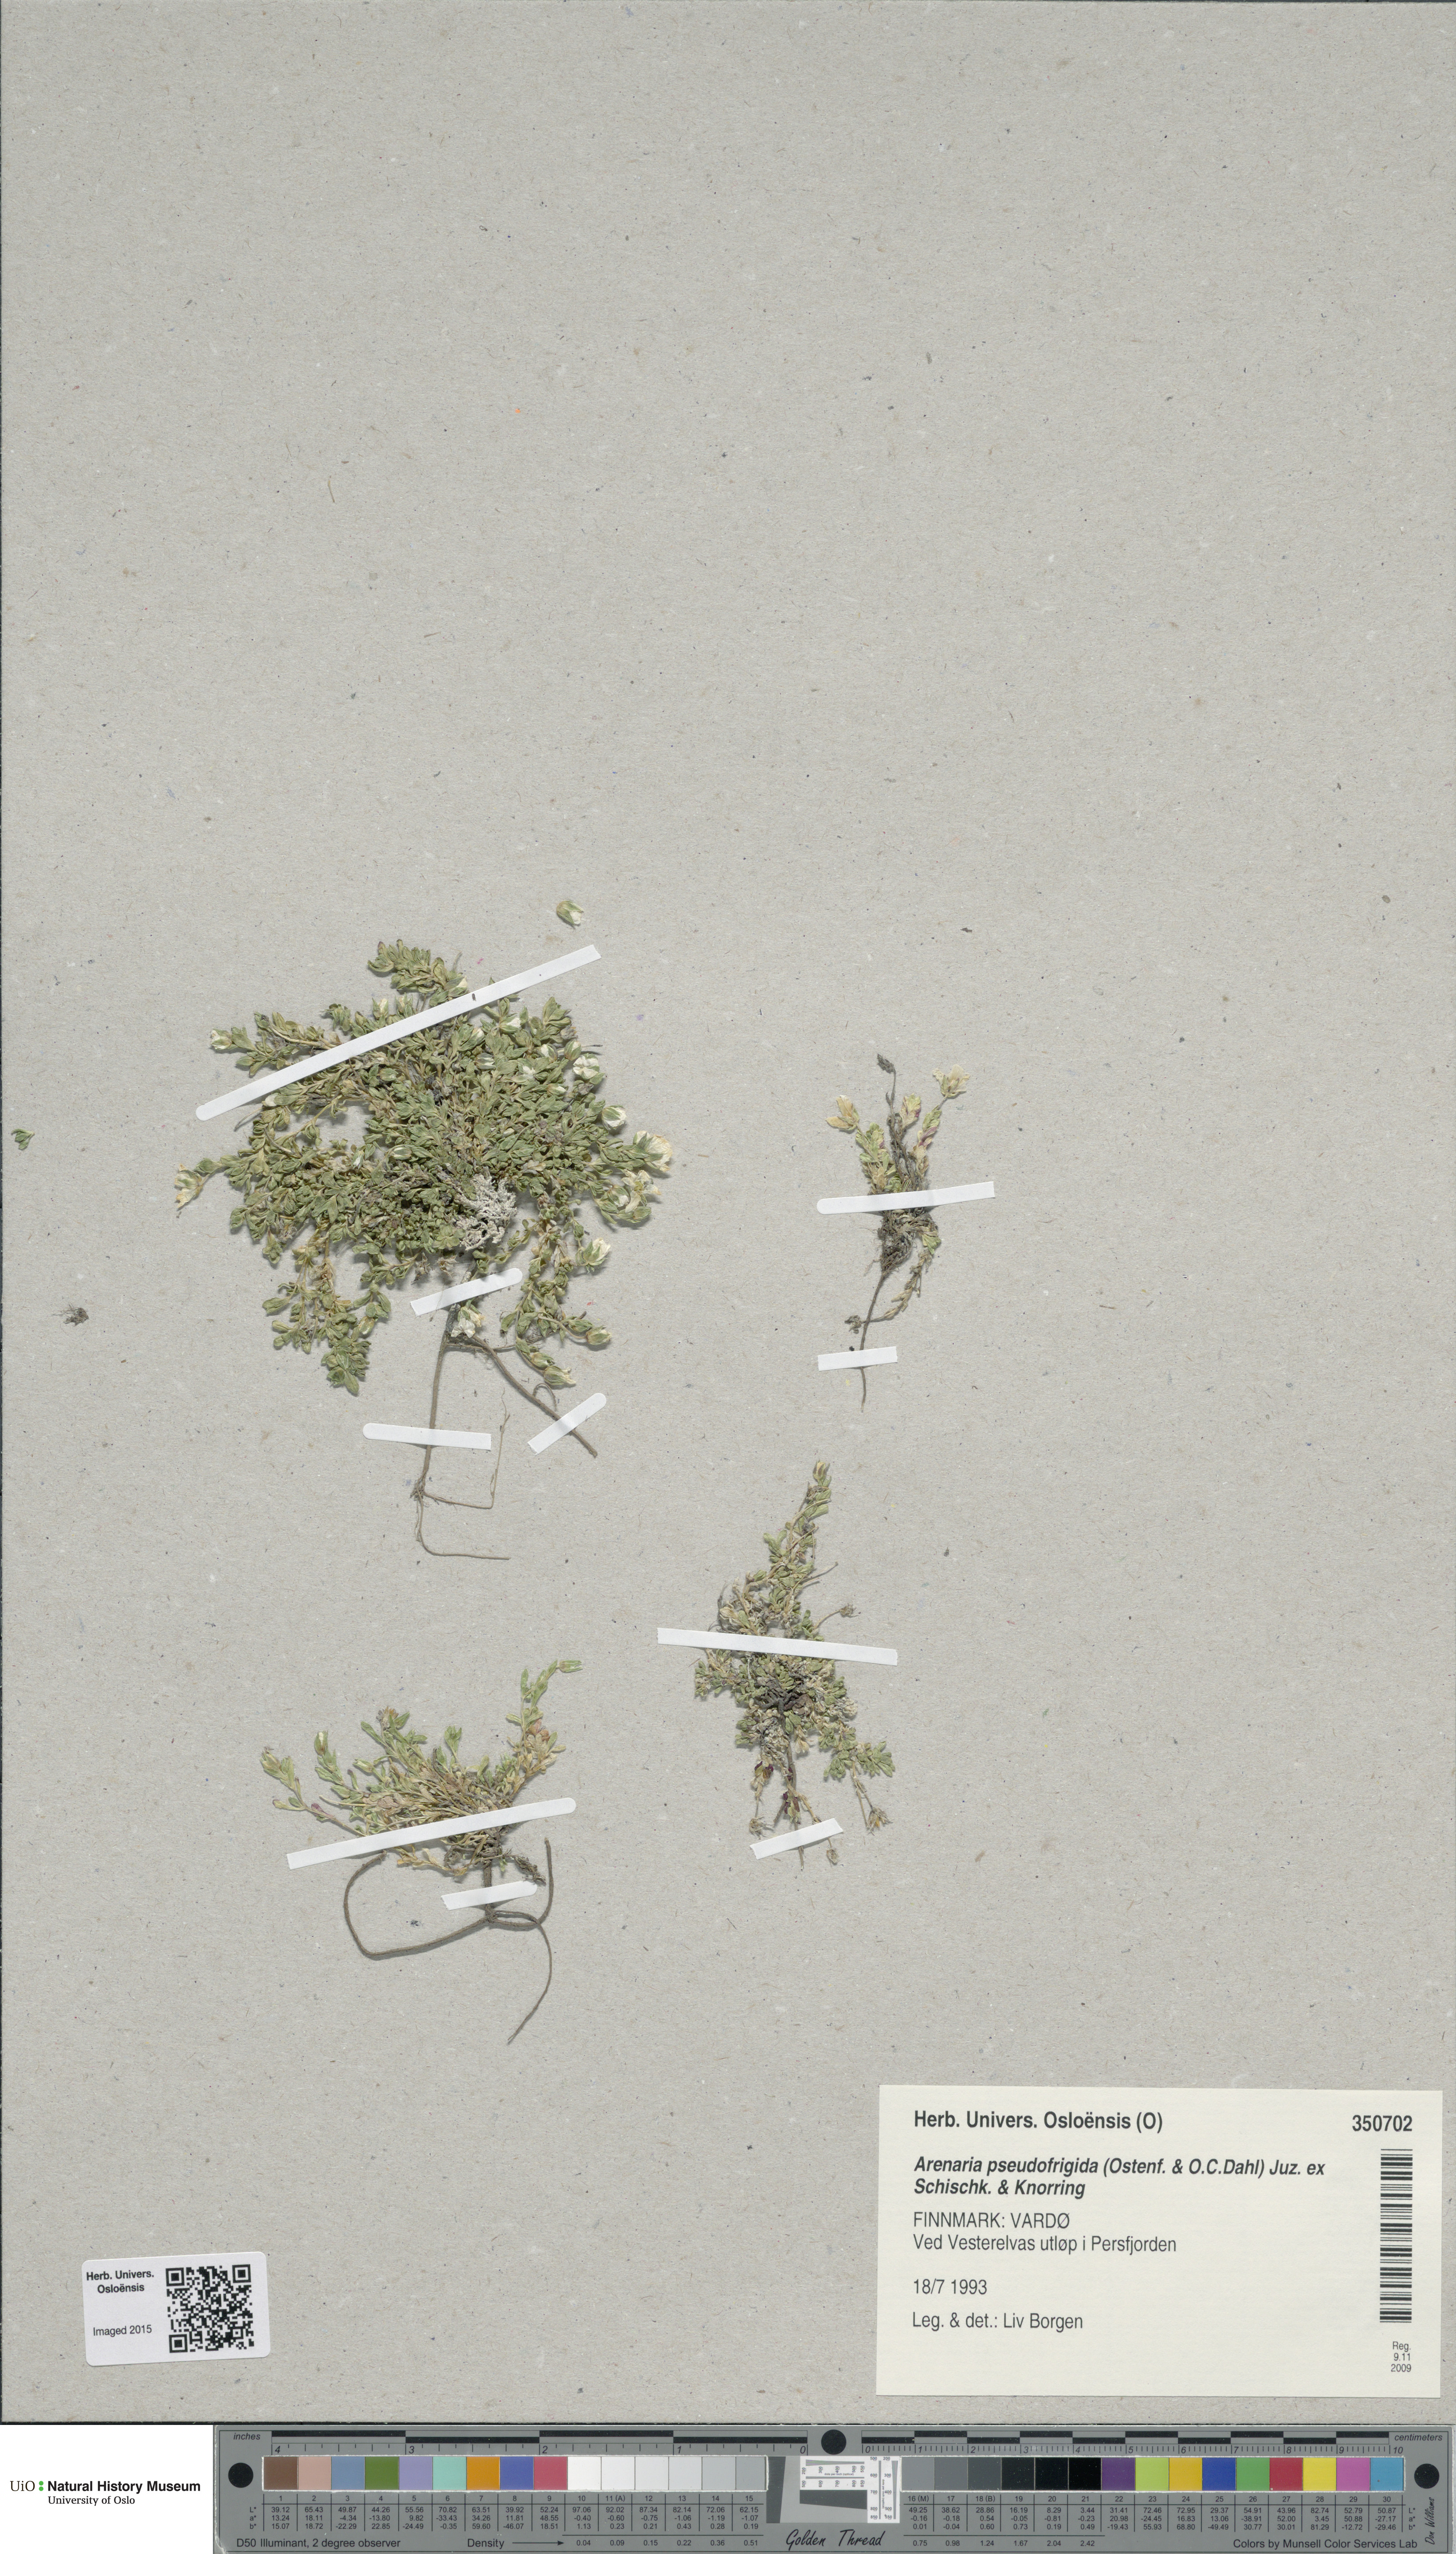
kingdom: Plantae
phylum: Tracheophyta
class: Magnoliopsida
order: Caryophyllales
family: Caryophyllaceae
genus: Arenaria
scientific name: Arenaria pseudofrigida
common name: Tundra sandwort
